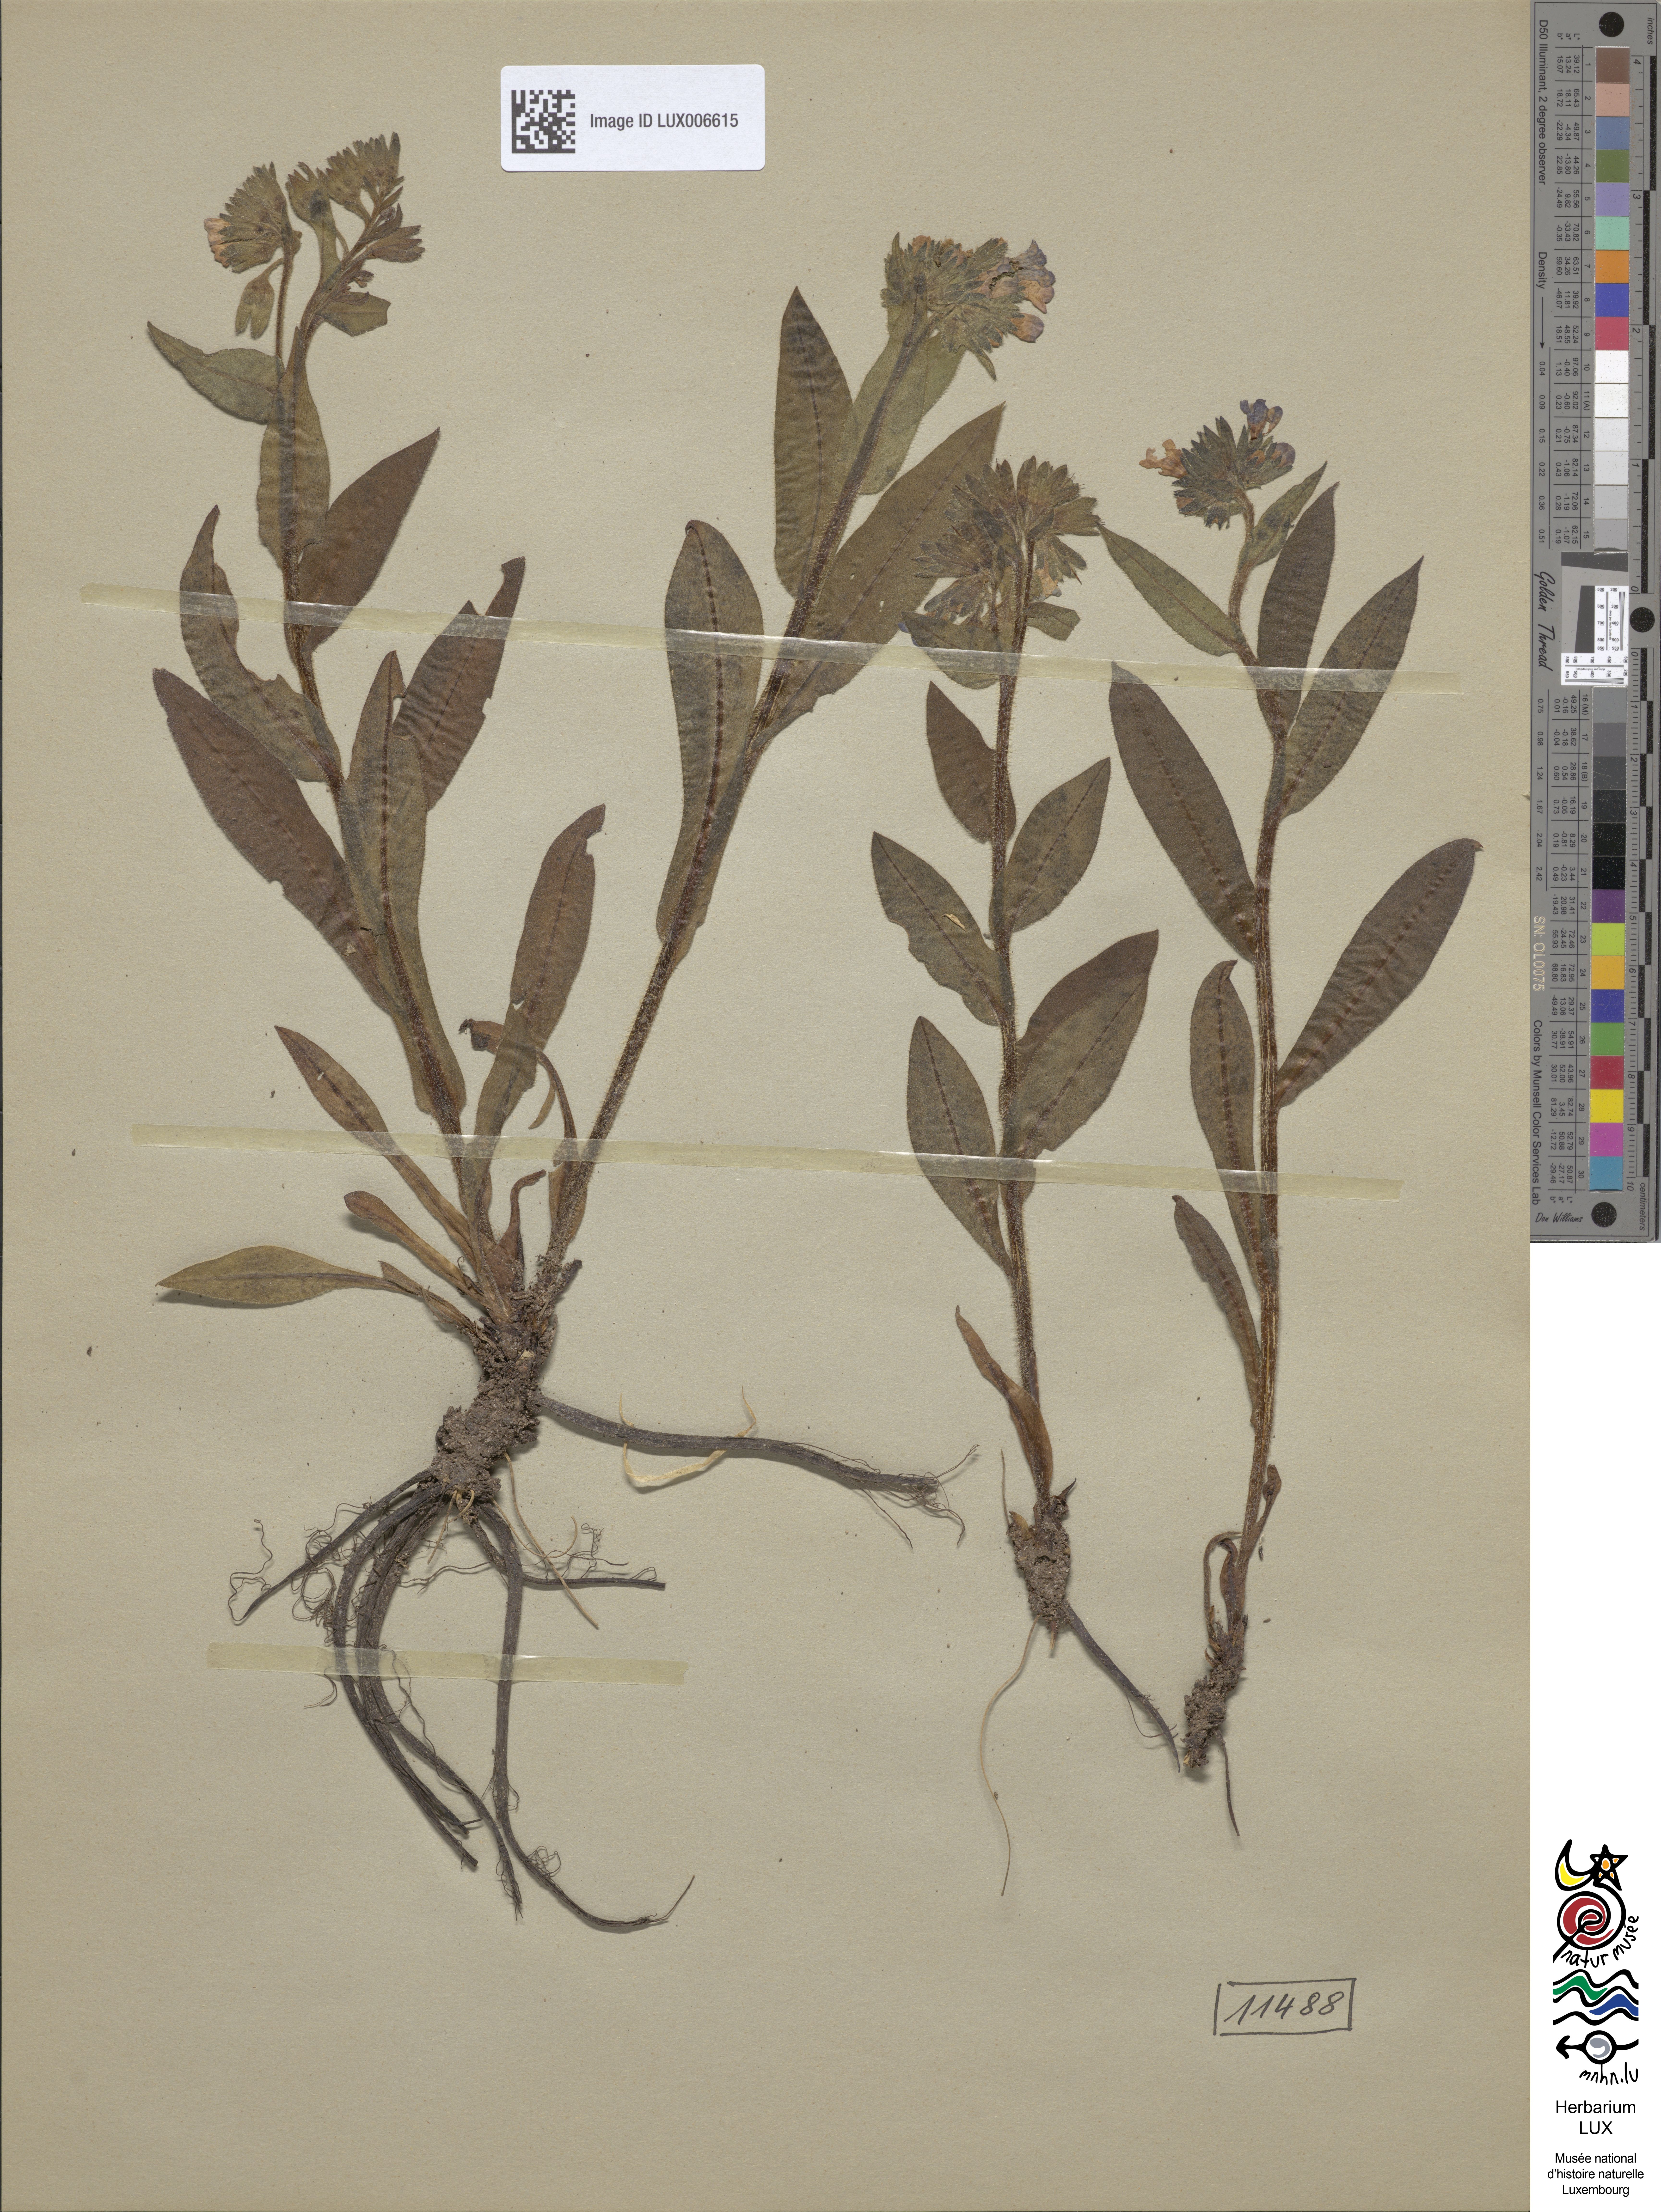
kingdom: Plantae
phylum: Tracheophyta
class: Magnoliopsida
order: Boraginales
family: Boraginaceae
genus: Pulmonaria
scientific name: Pulmonaria mollis
